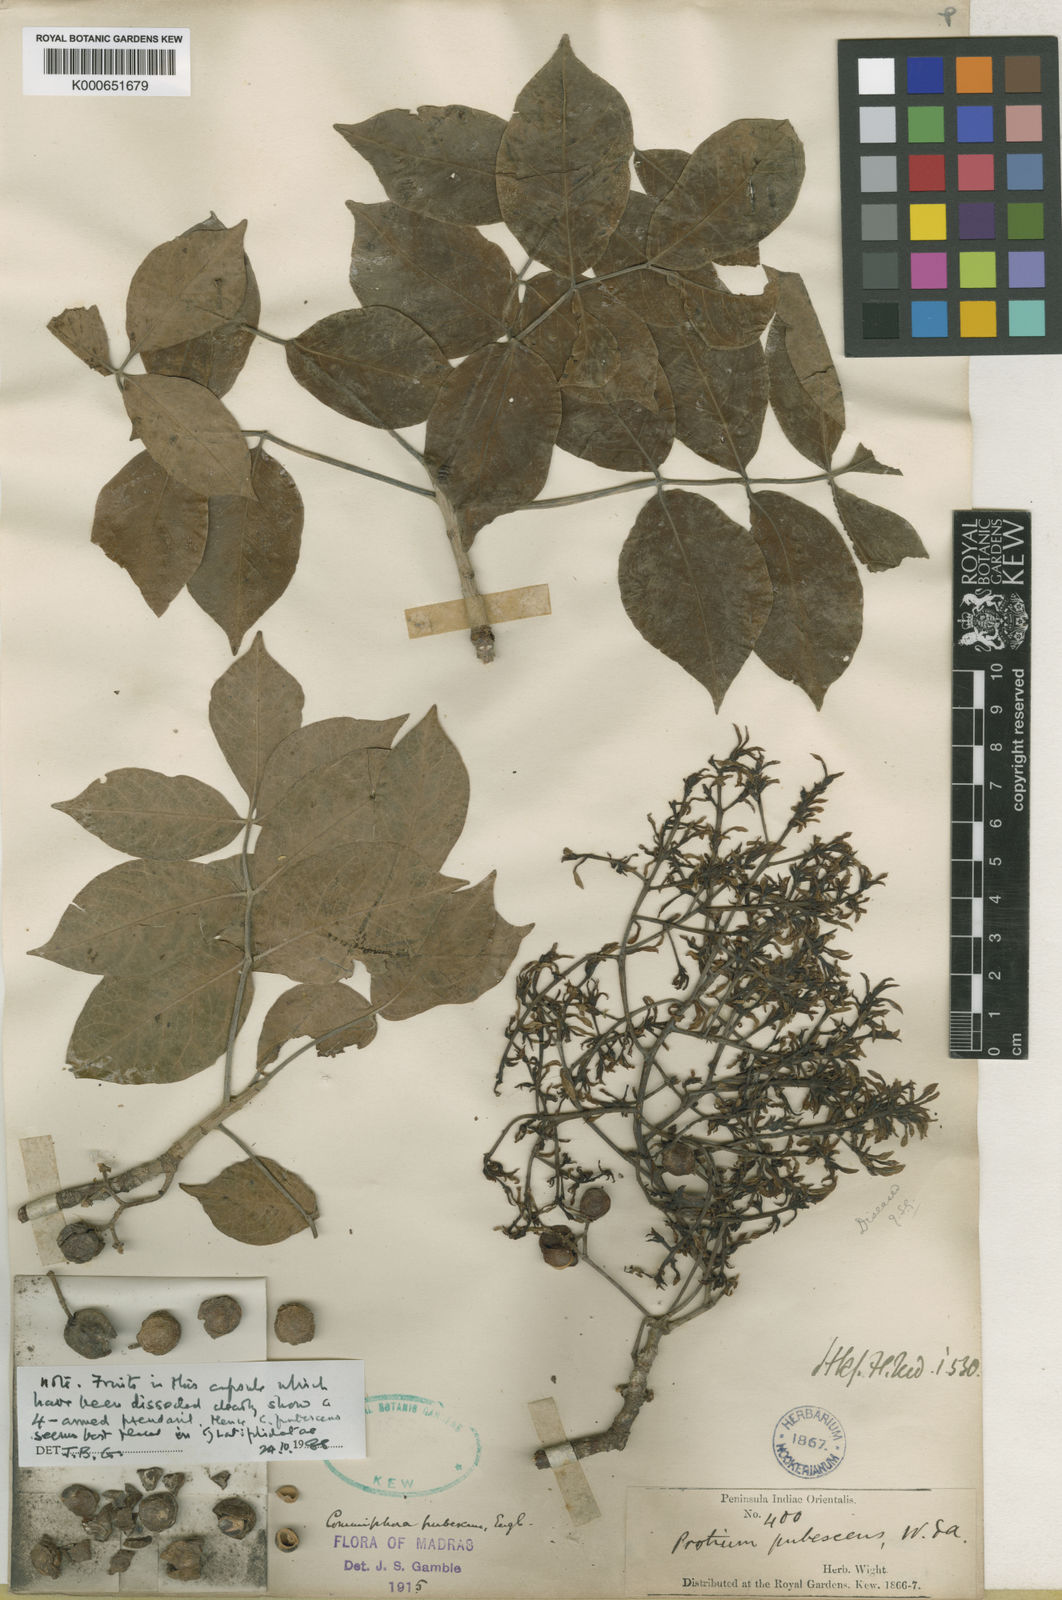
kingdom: Plantae
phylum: Tracheophyta
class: Magnoliopsida
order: Sapindales
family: Burseraceae
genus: Commiphora
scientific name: Commiphora caudata
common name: Hill-mango
